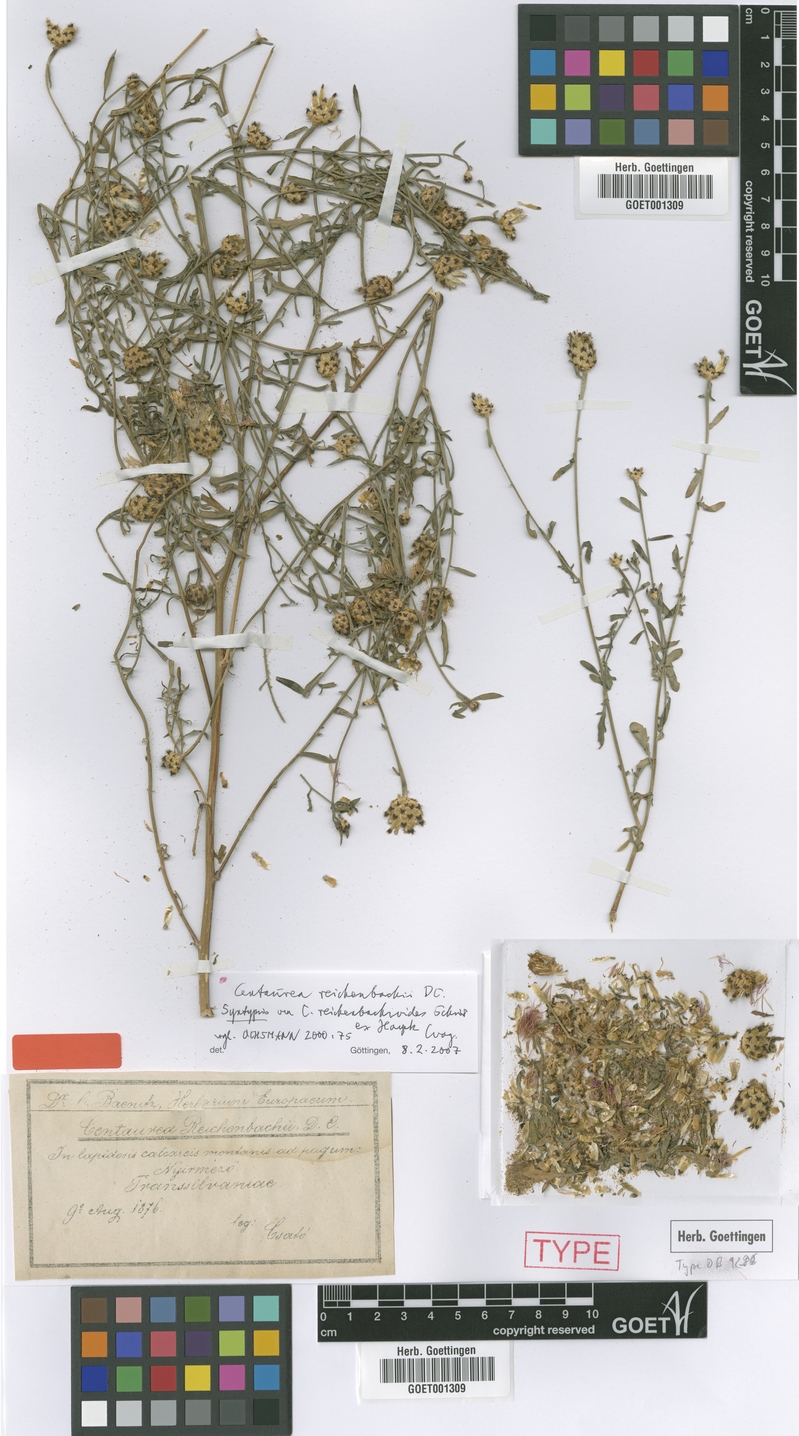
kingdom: Plantae
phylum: Tracheophyta
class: Magnoliopsida
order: Asterales
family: Asteraceae
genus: Centaurea
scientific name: Centaurea reichenbachii
